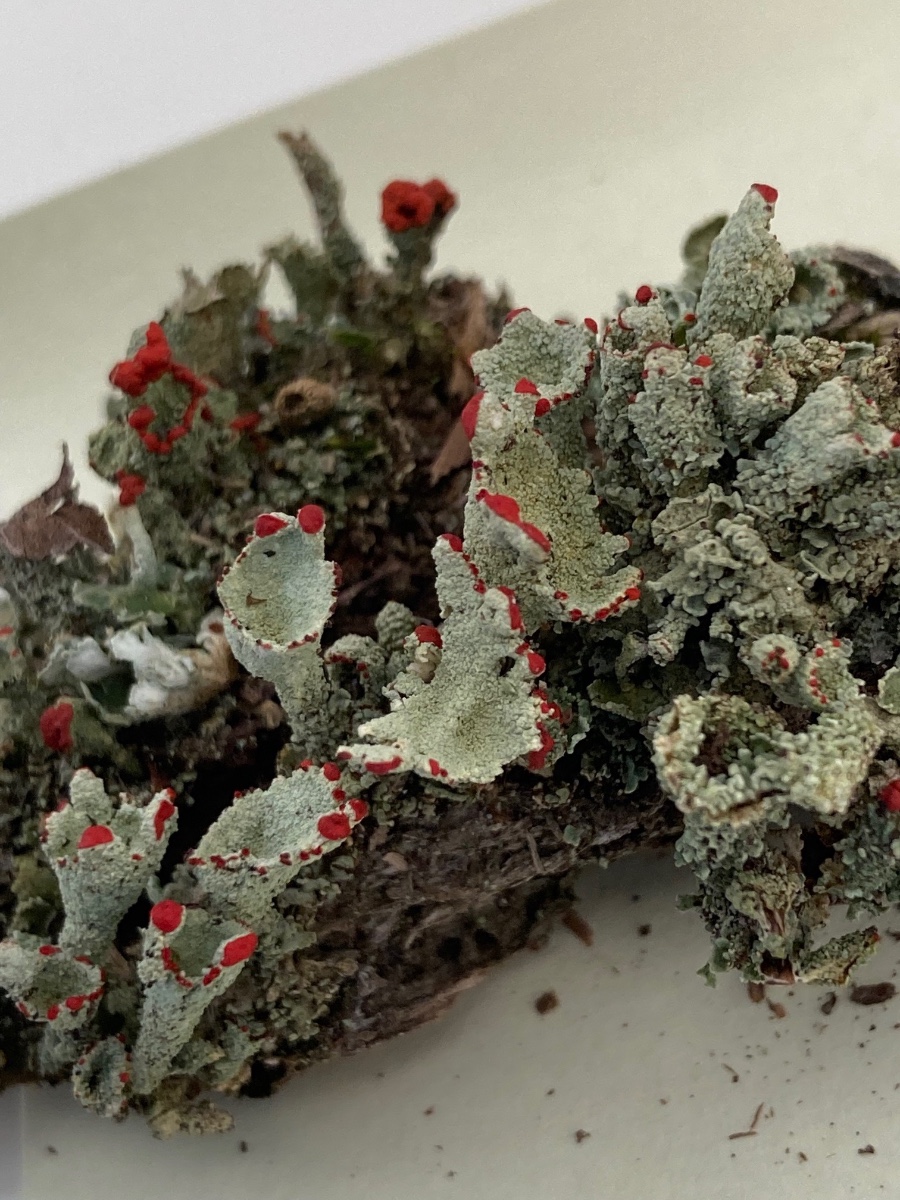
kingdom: Fungi
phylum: Ascomycota
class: Lecanoromycetes
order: Lecanorales
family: Cladoniaceae
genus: Cladonia
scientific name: Cladonia diversa
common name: rød bægerlav
